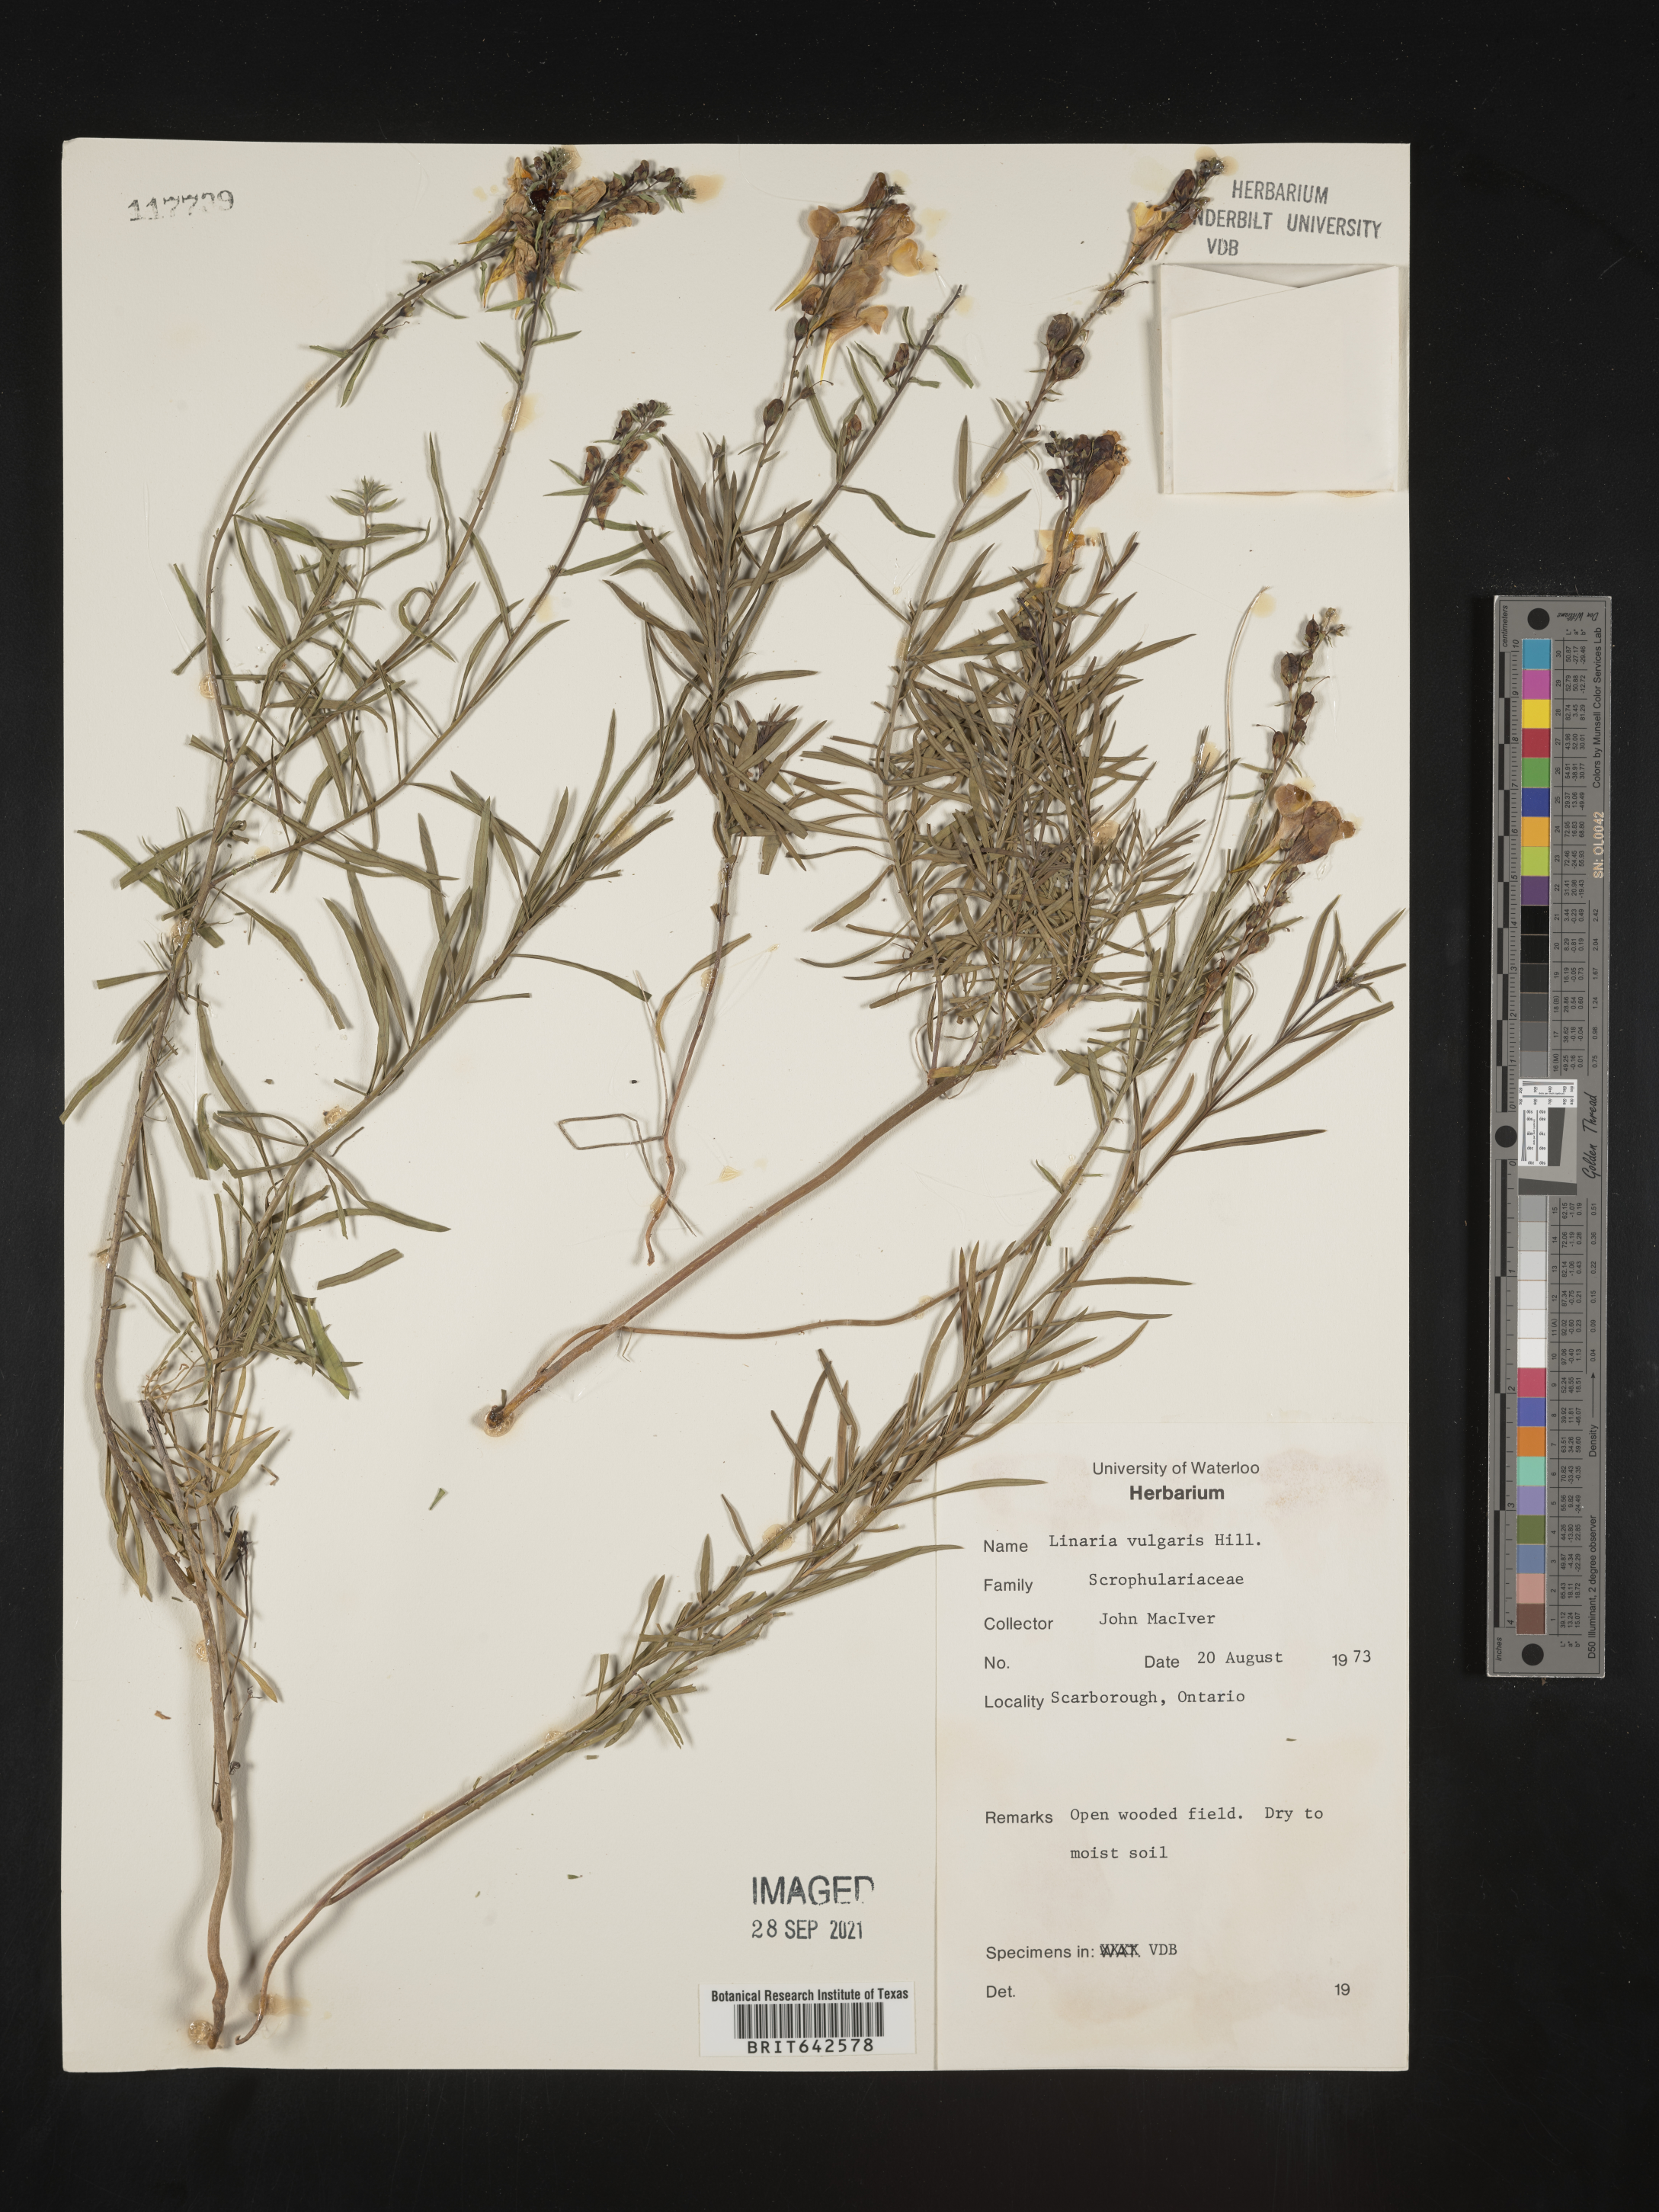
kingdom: Plantae
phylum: Tracheophyta
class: Magnoliopsida
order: Lamiales
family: Plantaginaceae
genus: Linaria
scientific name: Linaria
